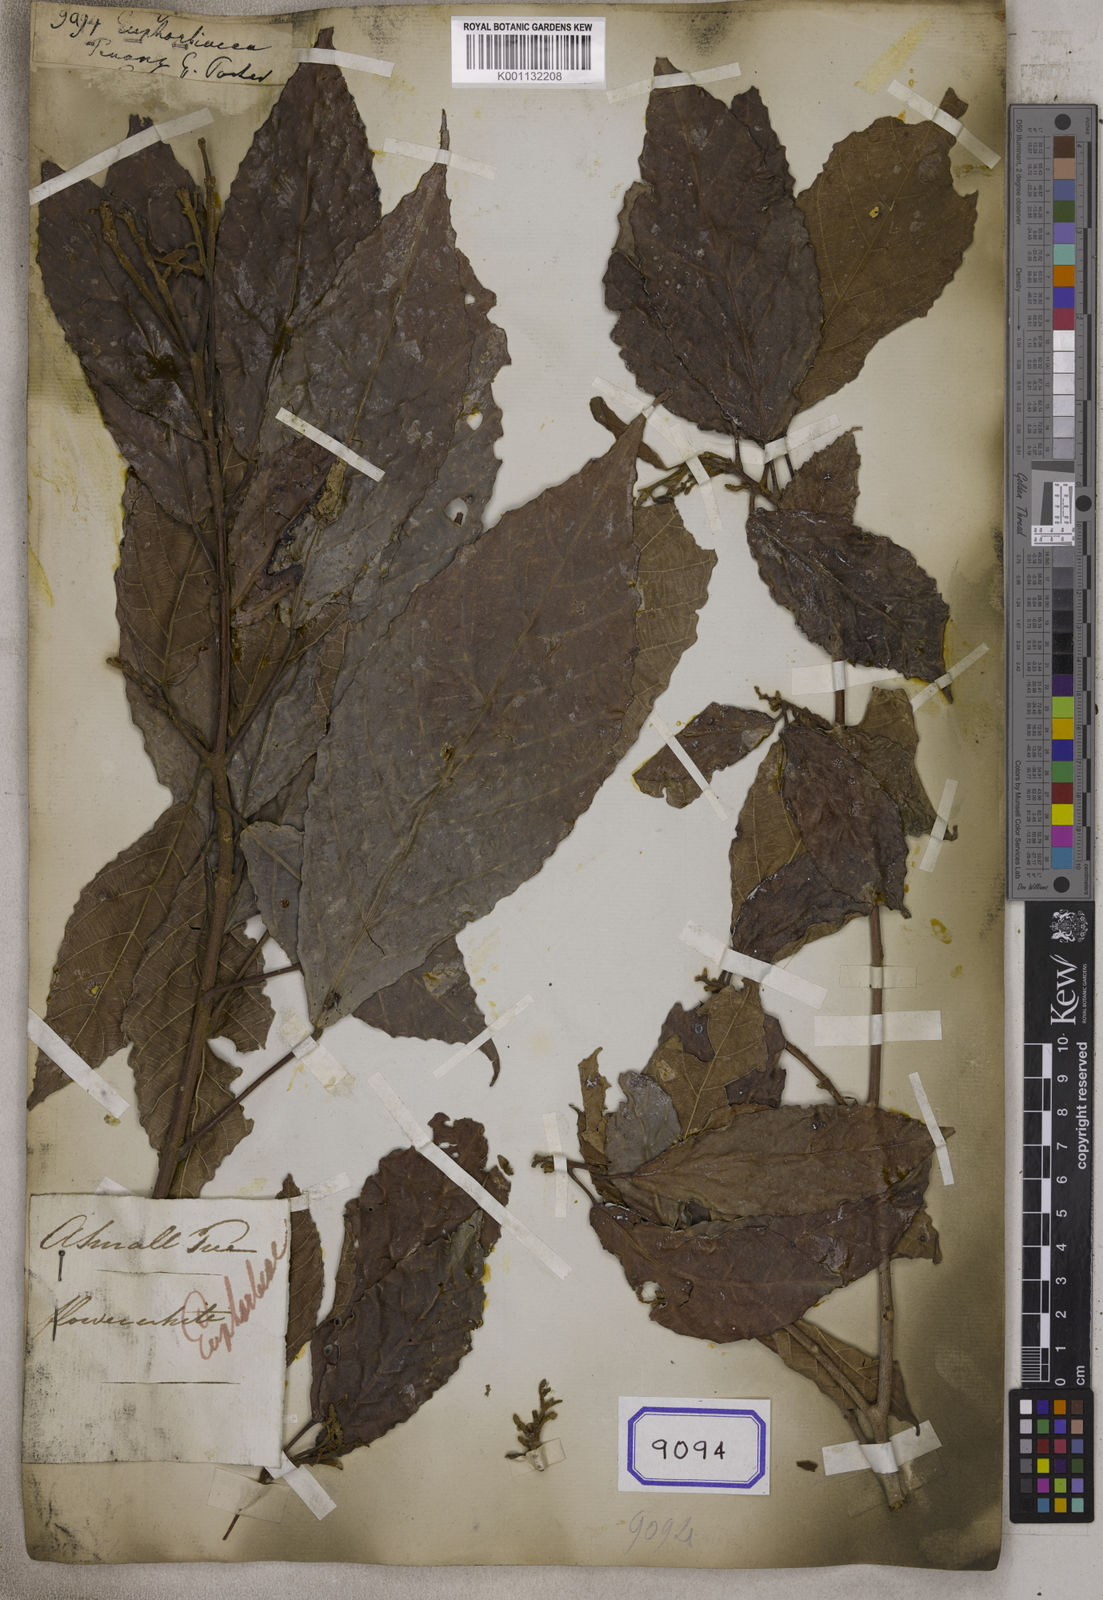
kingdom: Plantae
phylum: Tracheophyta
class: Magnoliopsida
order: Malpighiales
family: Euphorbiaceae
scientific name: Euphorbiaceae
